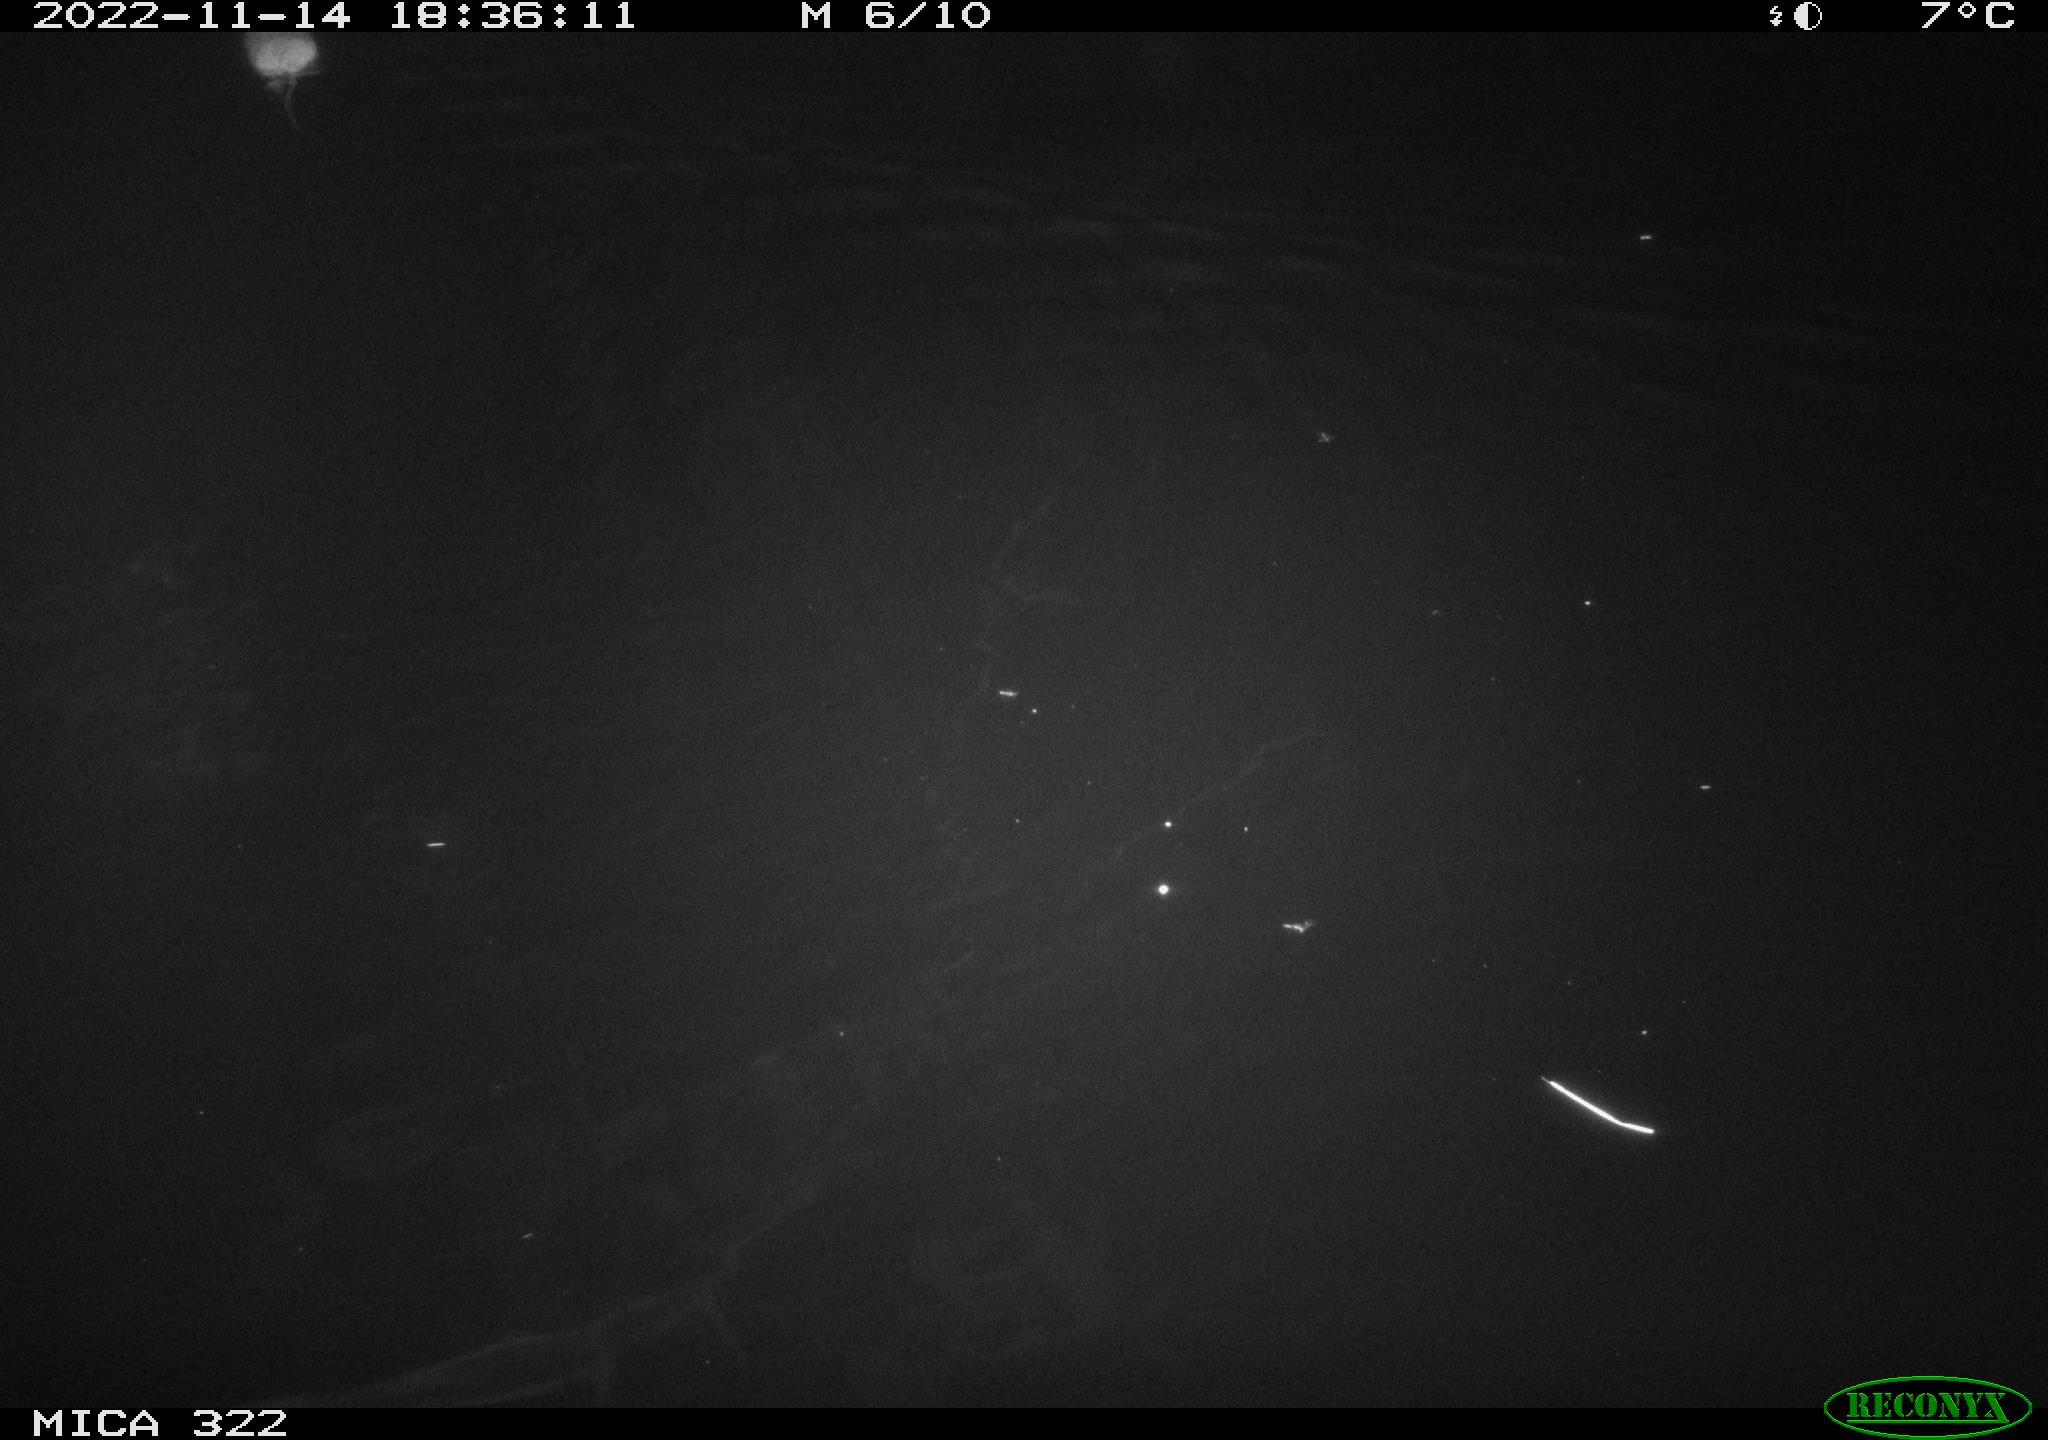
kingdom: Animalia
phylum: Chordata
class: Mammalia
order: Rodentia
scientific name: Rodentia
